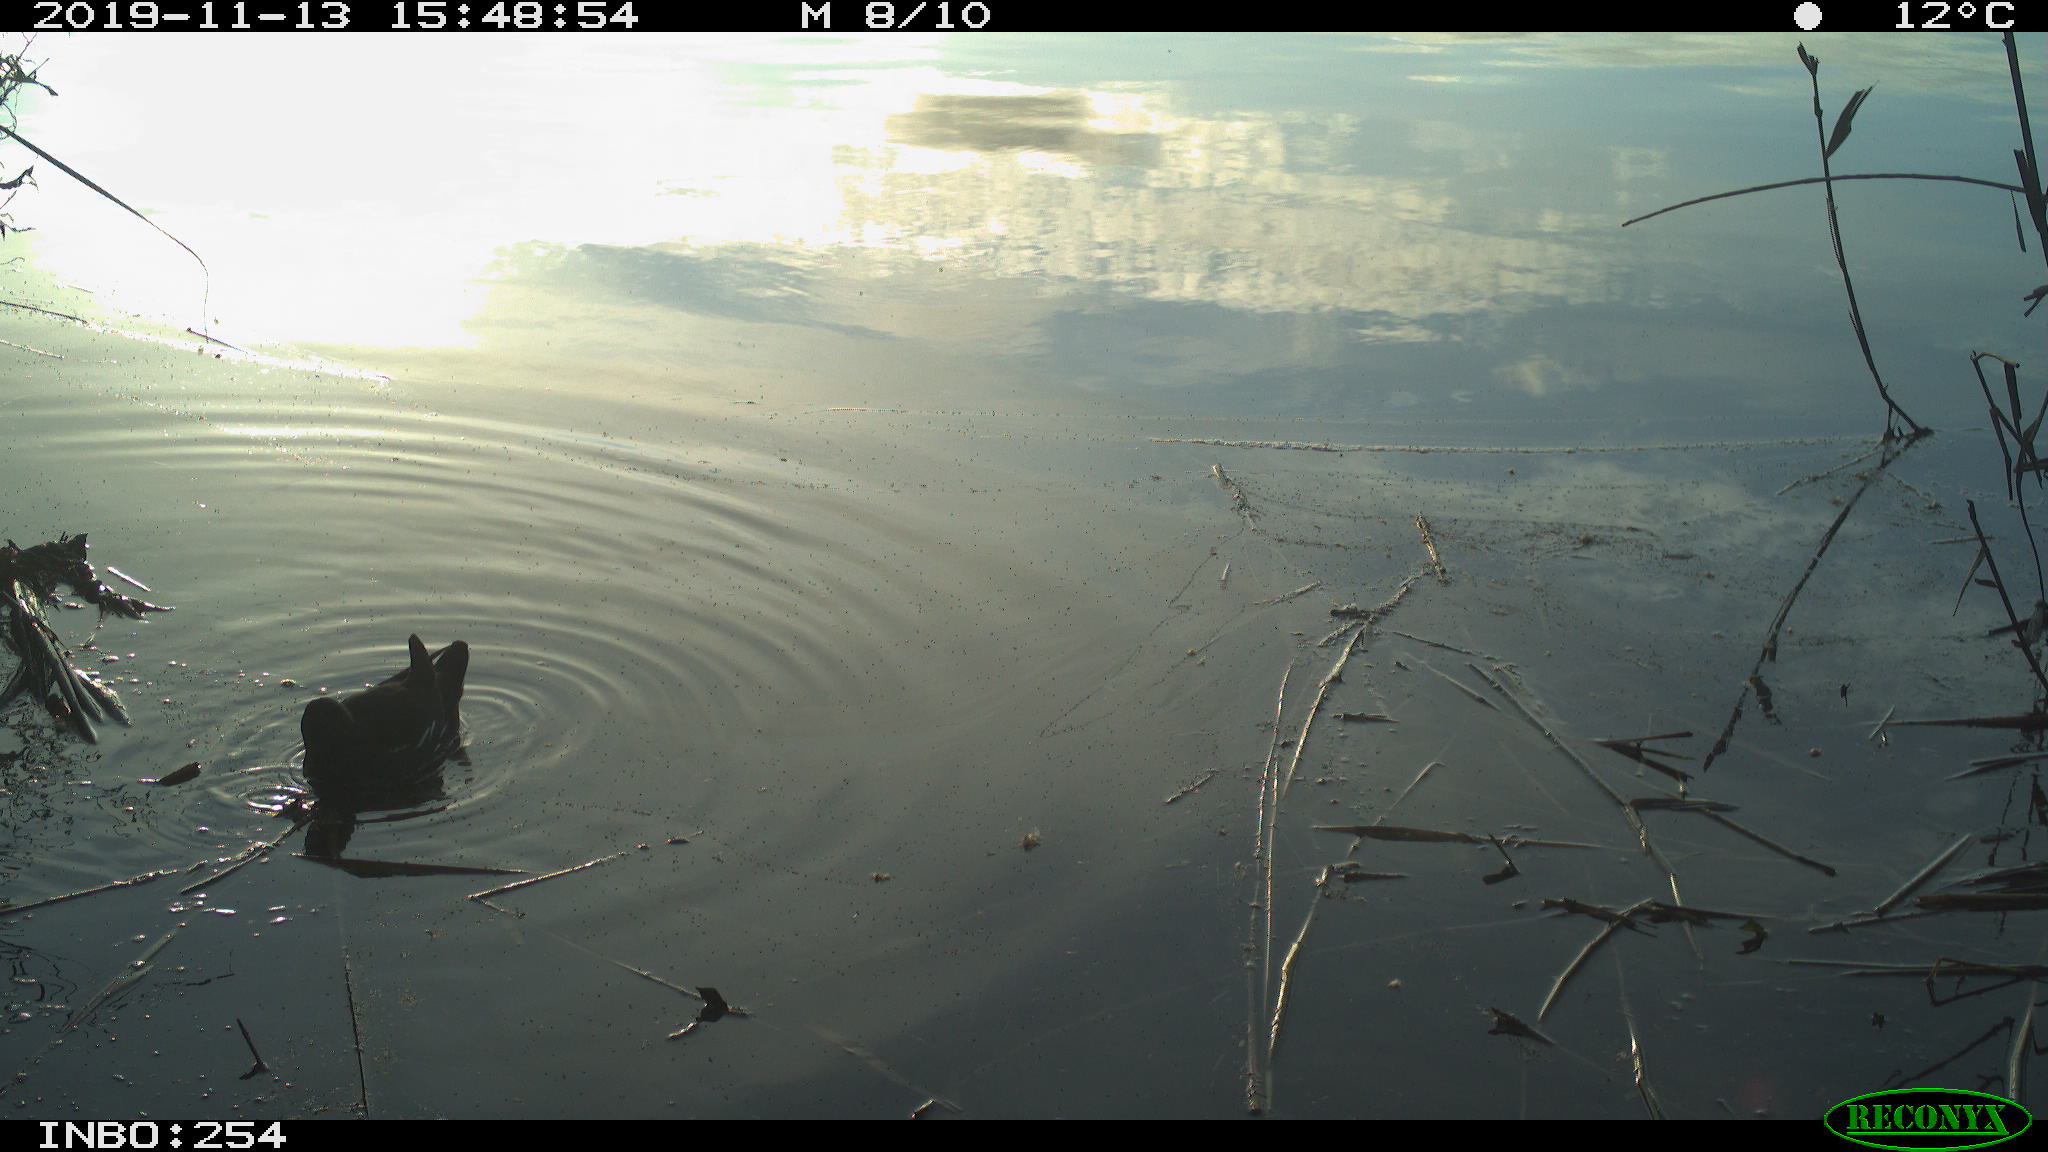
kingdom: Animalia
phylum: Chordata
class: Aves
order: Gruiformes
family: Rallidae
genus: Gallinula
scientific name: Gallinula chloropus
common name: Common moorhen
